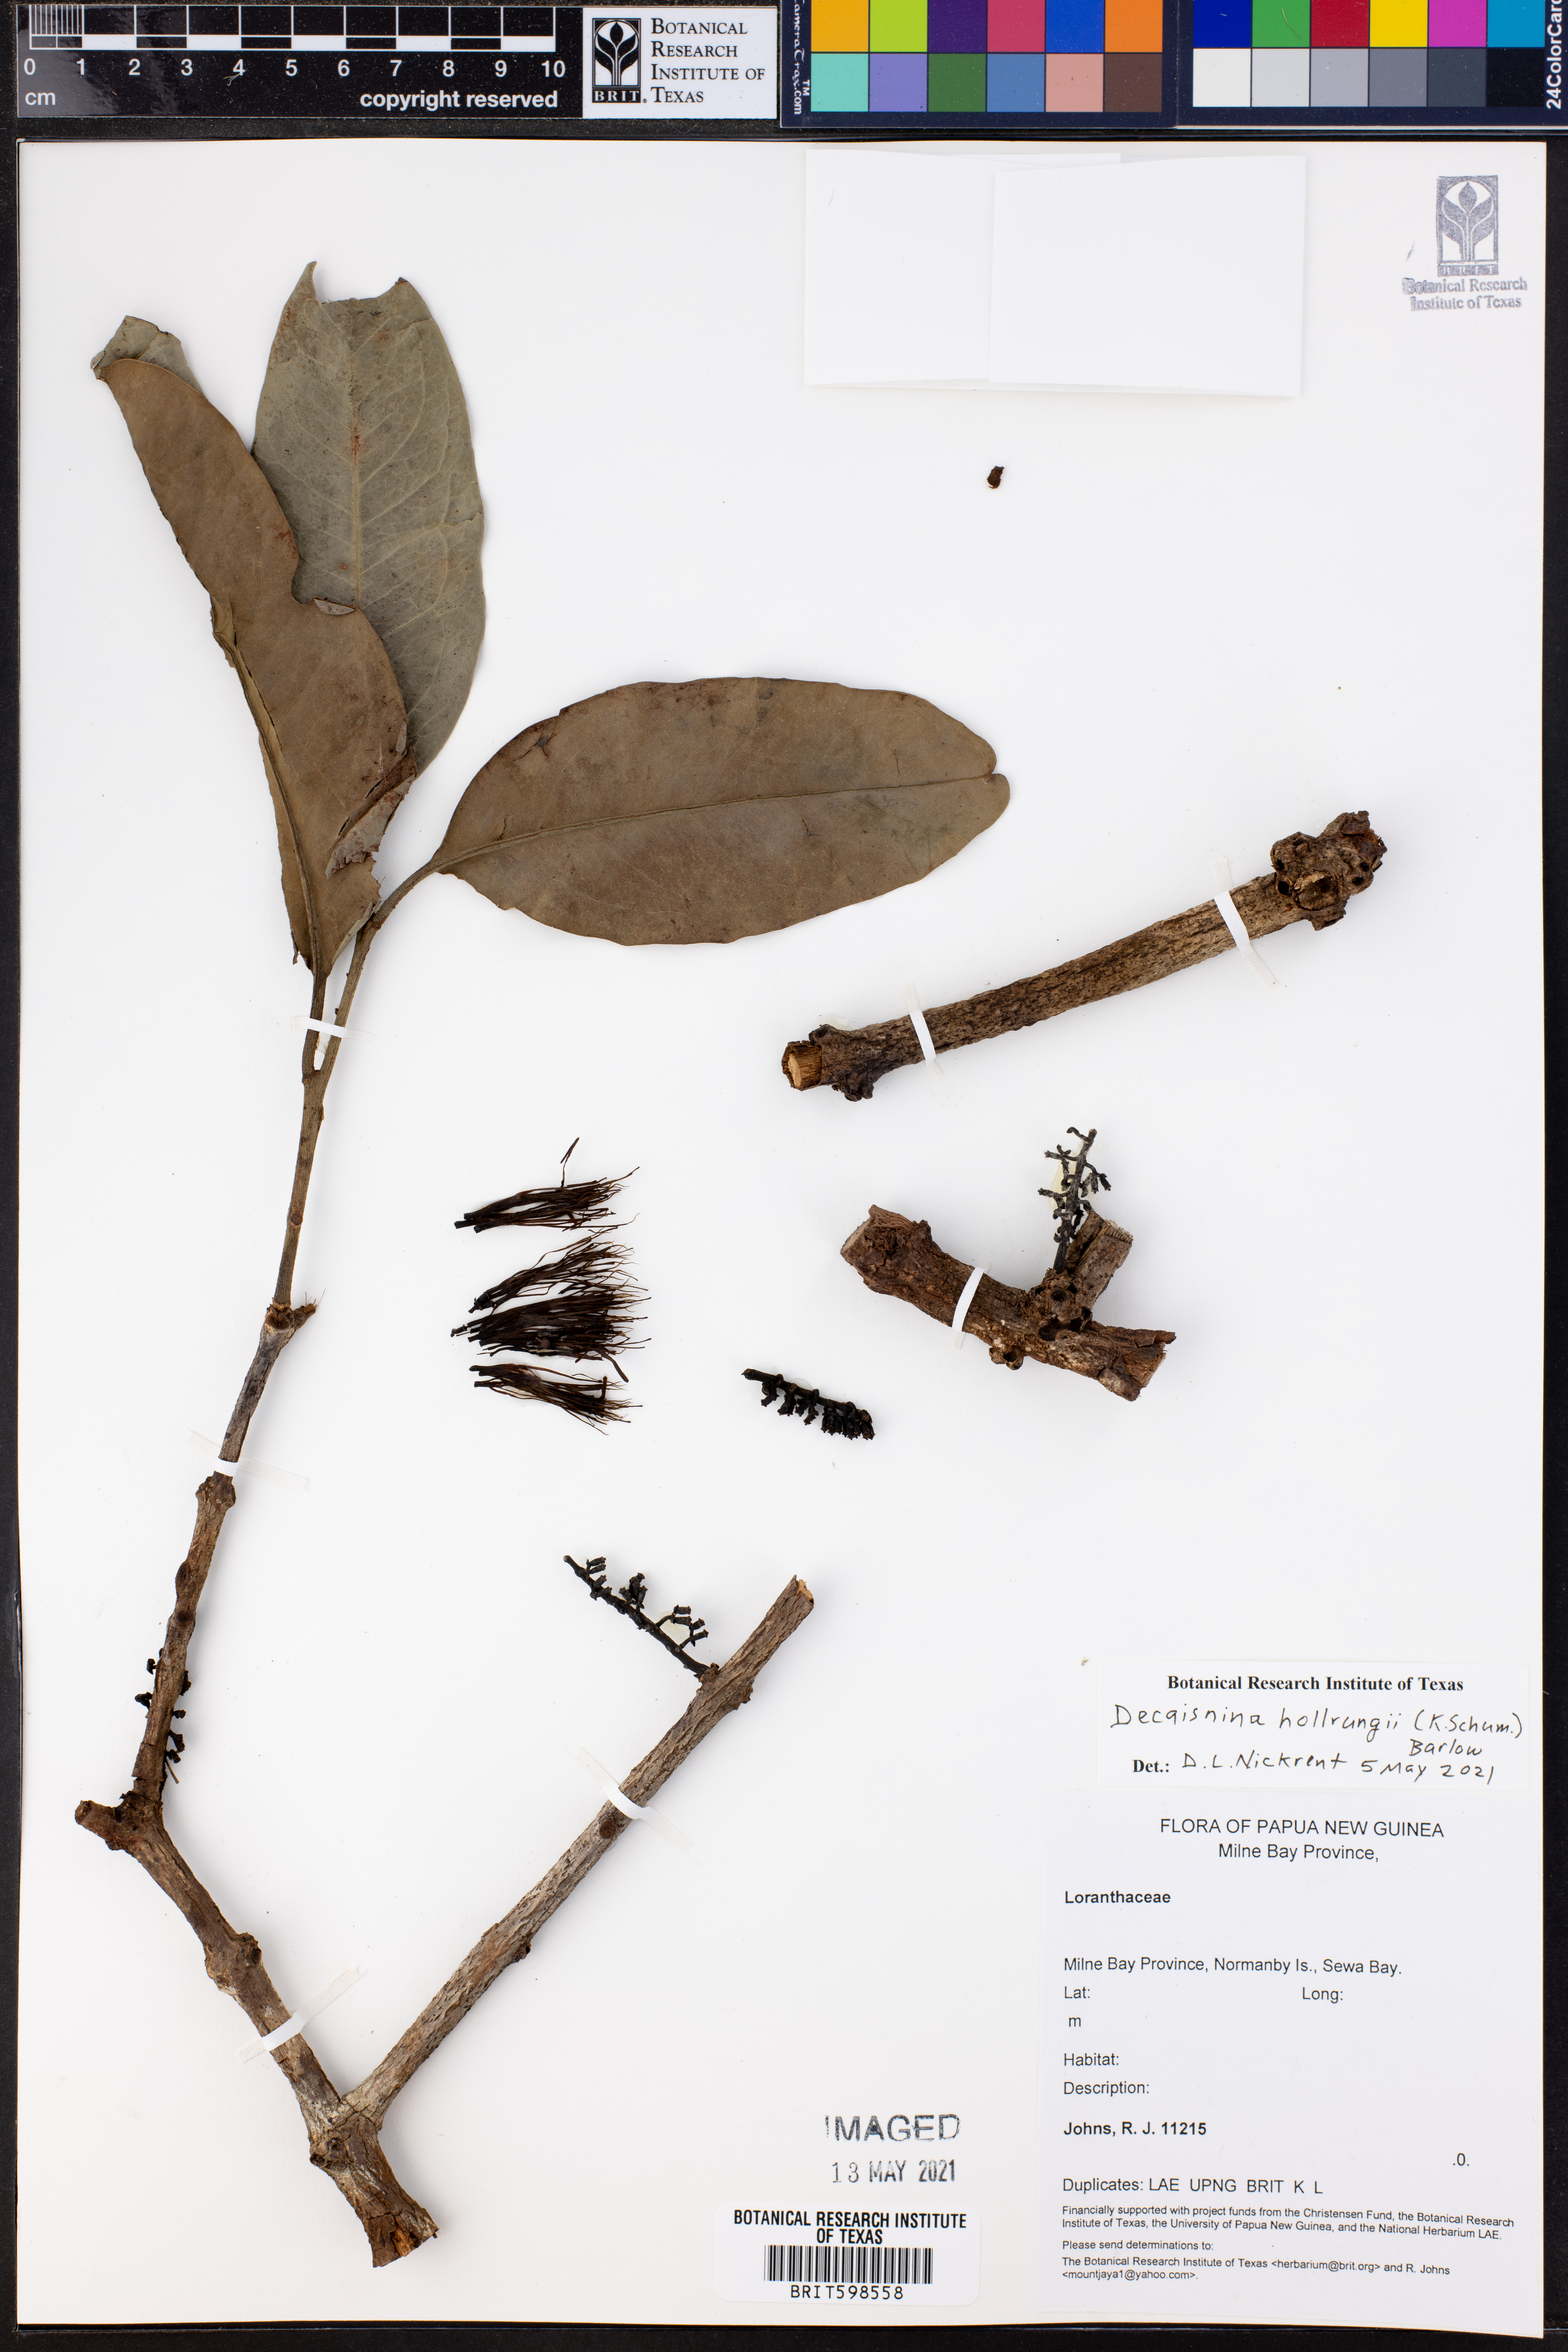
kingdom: Plantae
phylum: Tracheophyta
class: Magnoliopsida
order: Santalales
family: Loranthaceae
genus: Decaisnina
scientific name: Decaisnina hollrungii
